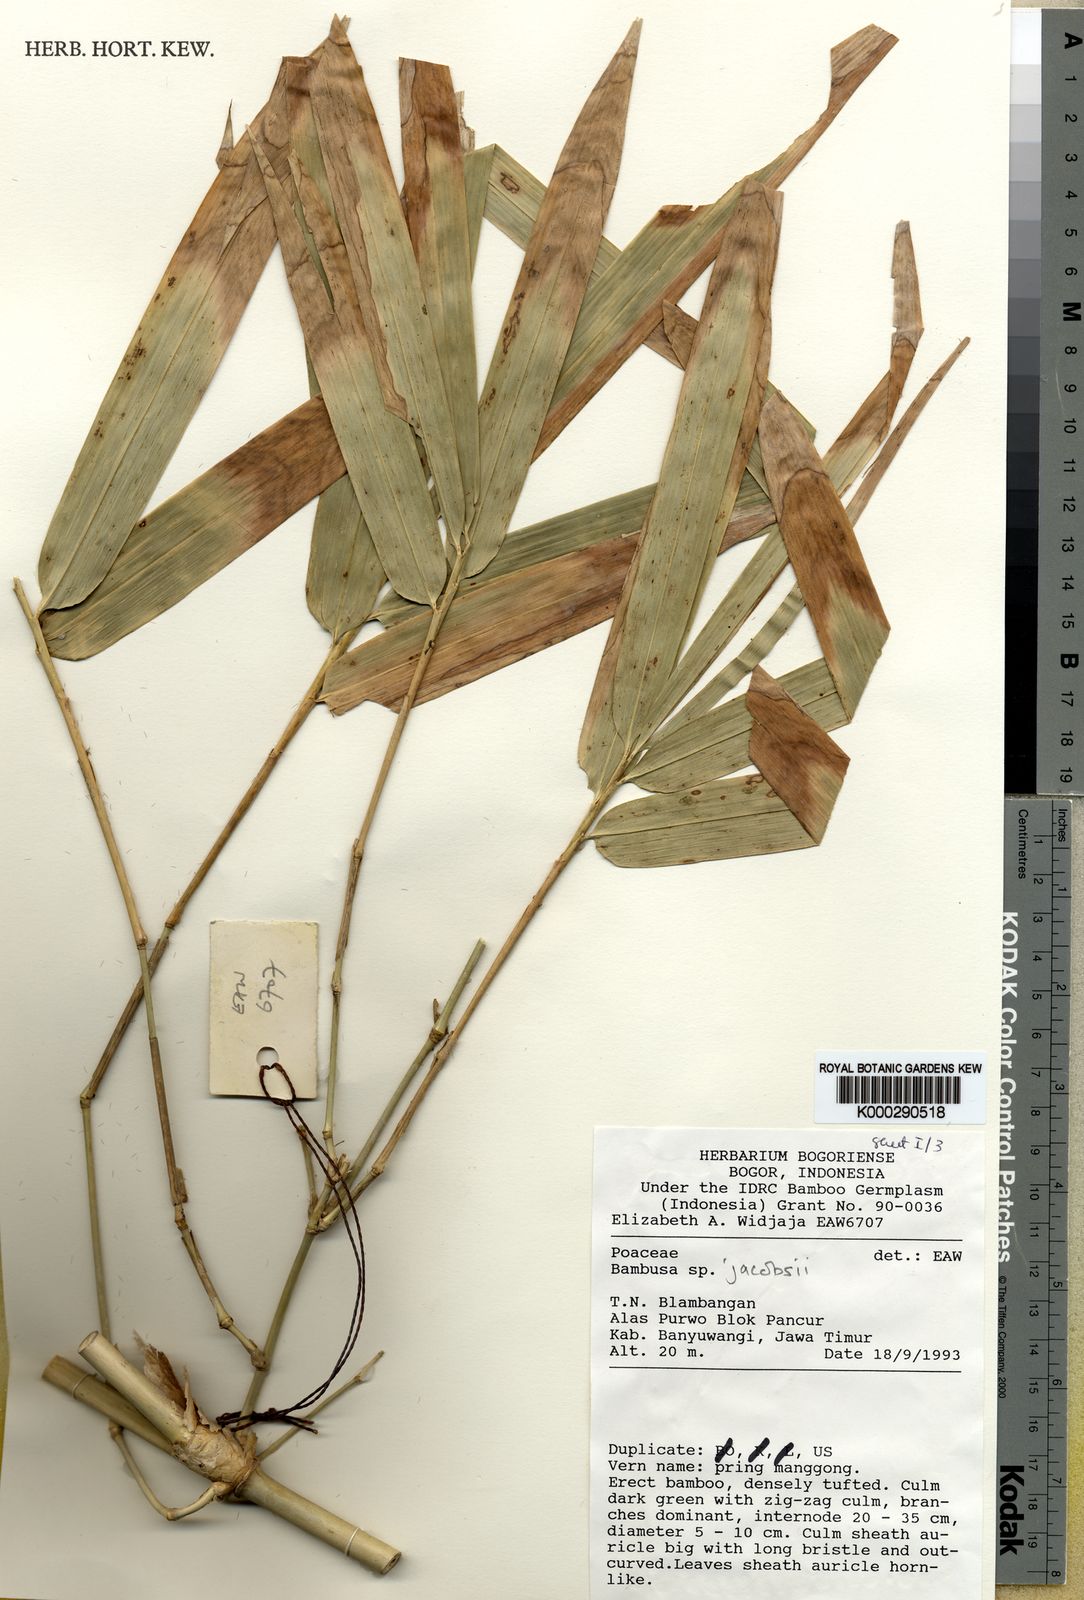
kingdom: Plantae
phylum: Tracheophyta
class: Liliopsida
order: Poales
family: Poaceae
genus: Bambusa
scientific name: Bambusa
